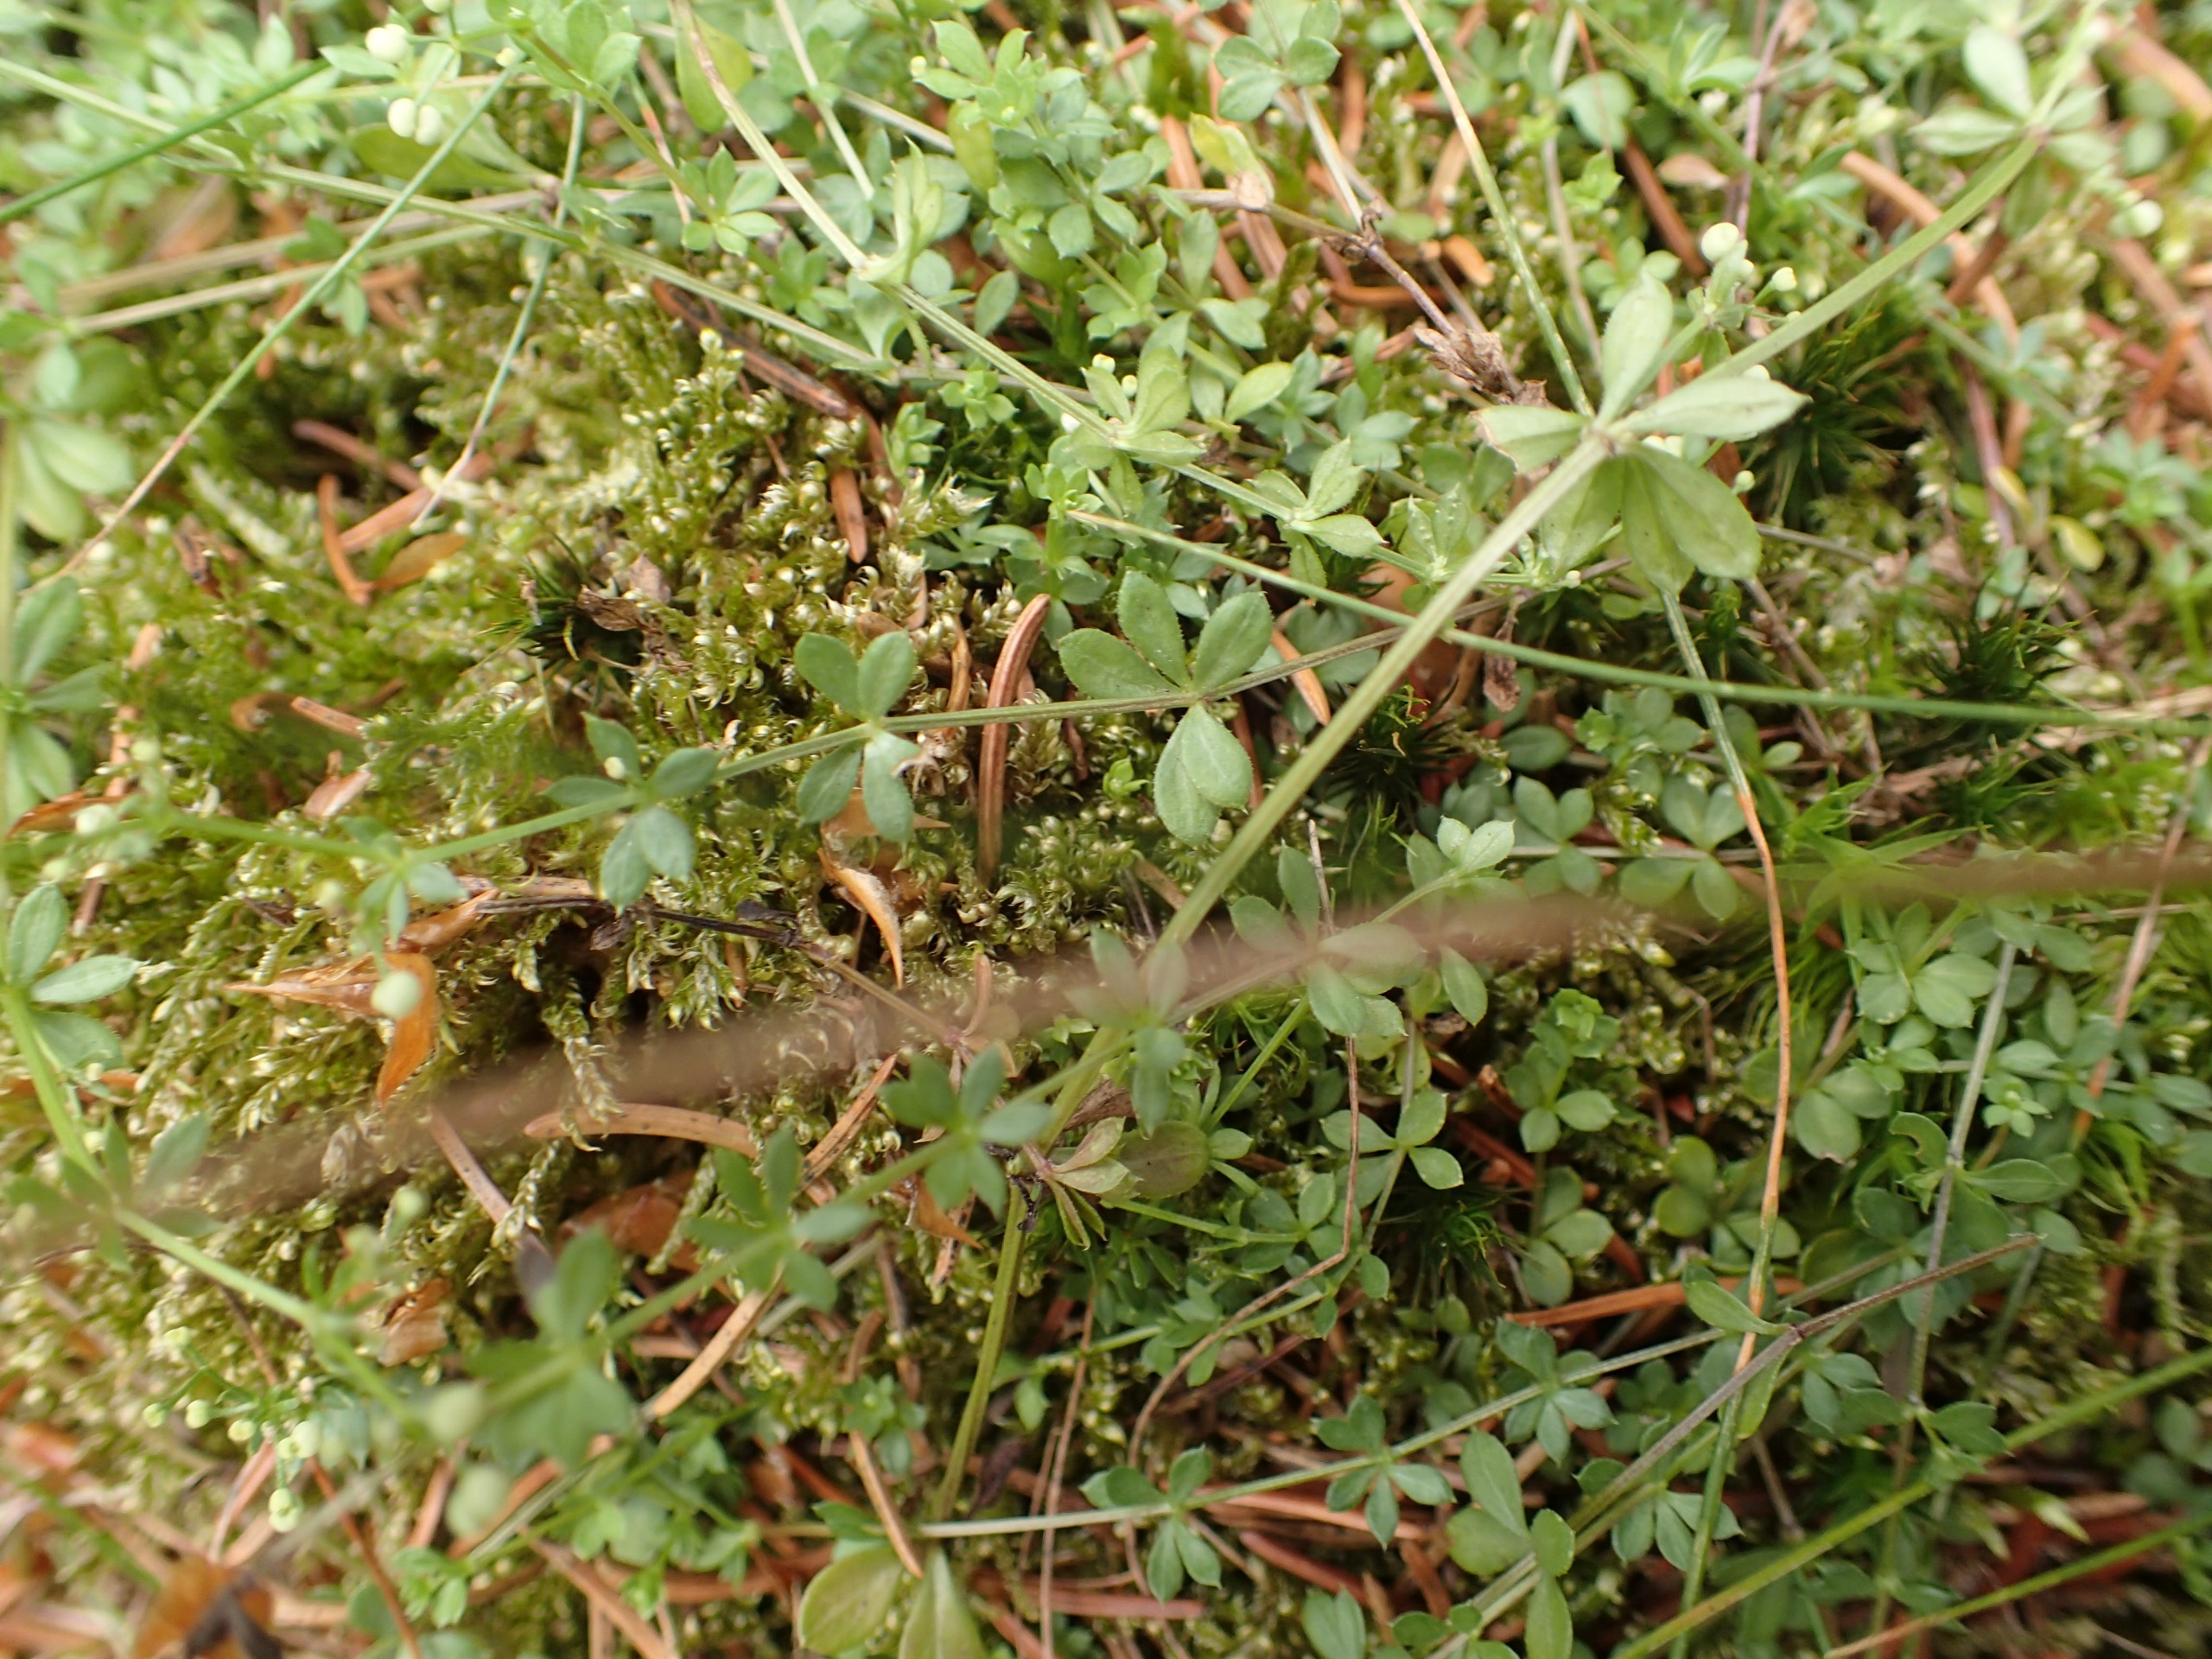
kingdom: Plantae
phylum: Tracheophyta
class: Magnoliopsida
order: Gentianales
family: Rubiaceae
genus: Galium
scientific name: Galium saxatile
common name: Lyng-snerre
